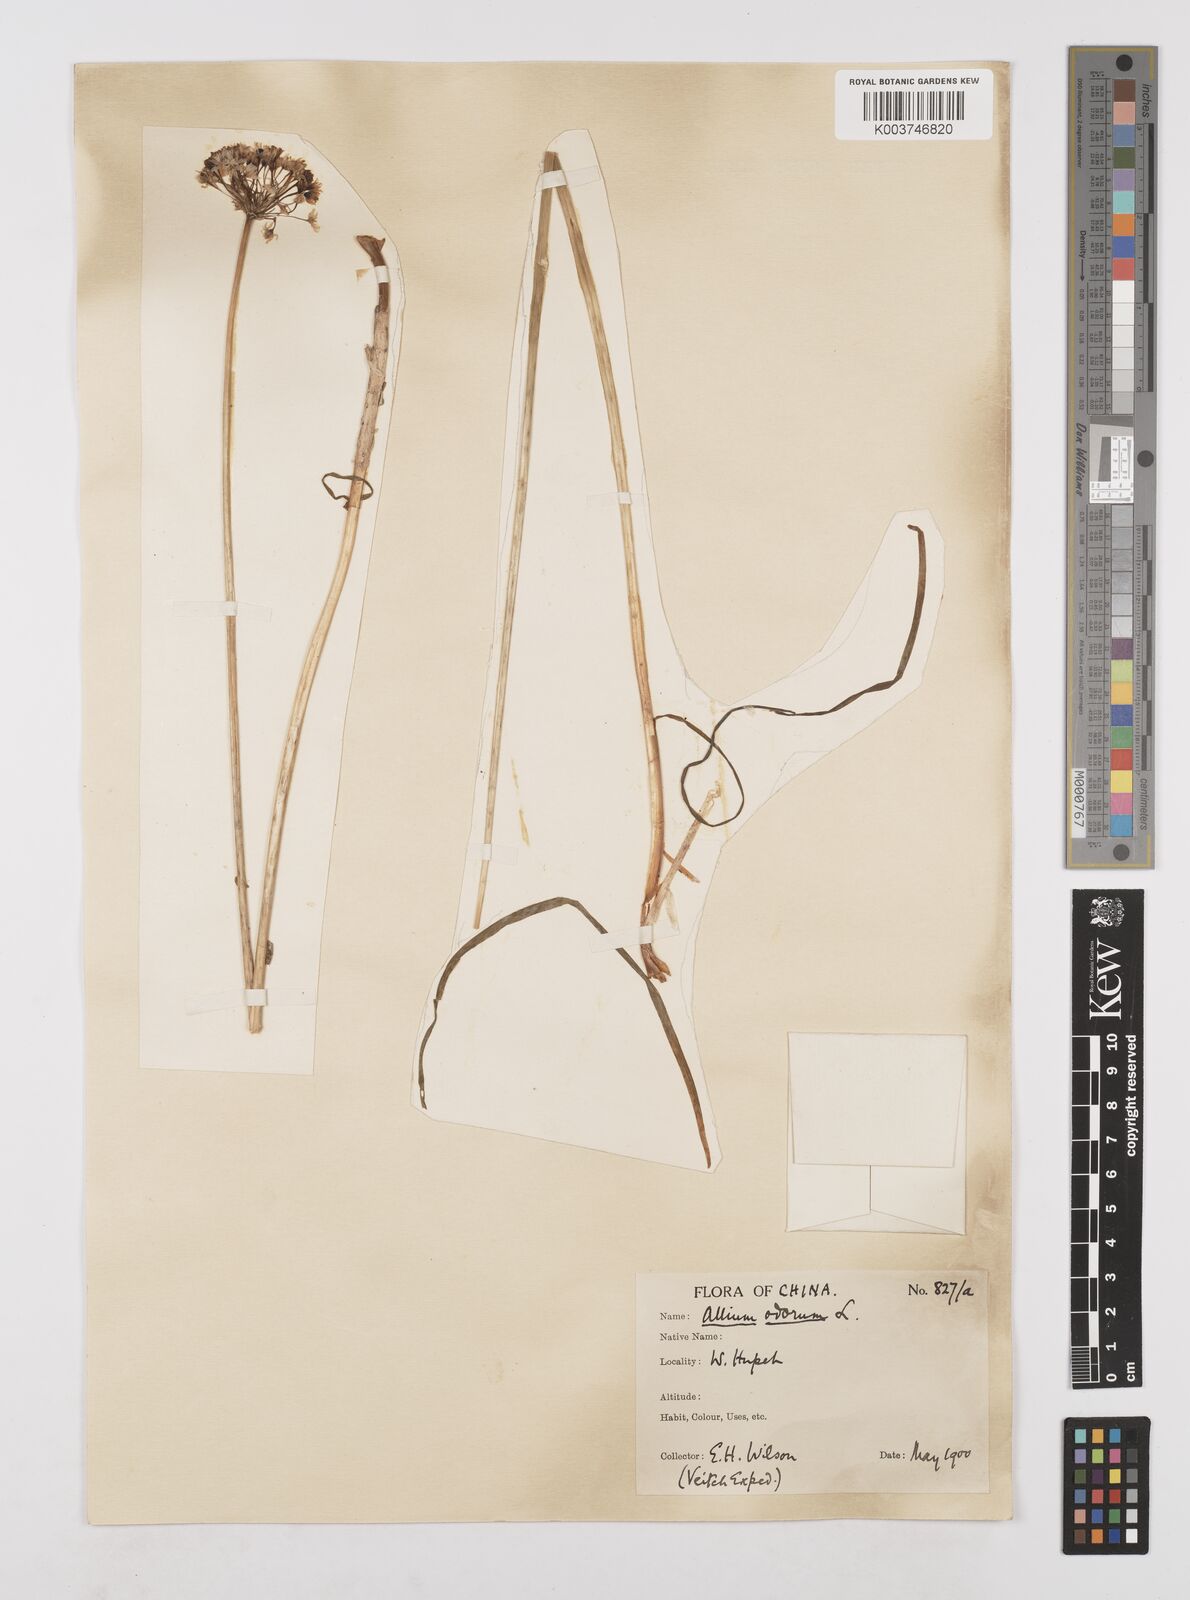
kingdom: Plantae
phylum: Tracheophyta
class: Liliopsida
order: Asparagales
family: Amaryllidaceae
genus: Allium
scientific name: Allium ramosum
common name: Fragrant garlic
